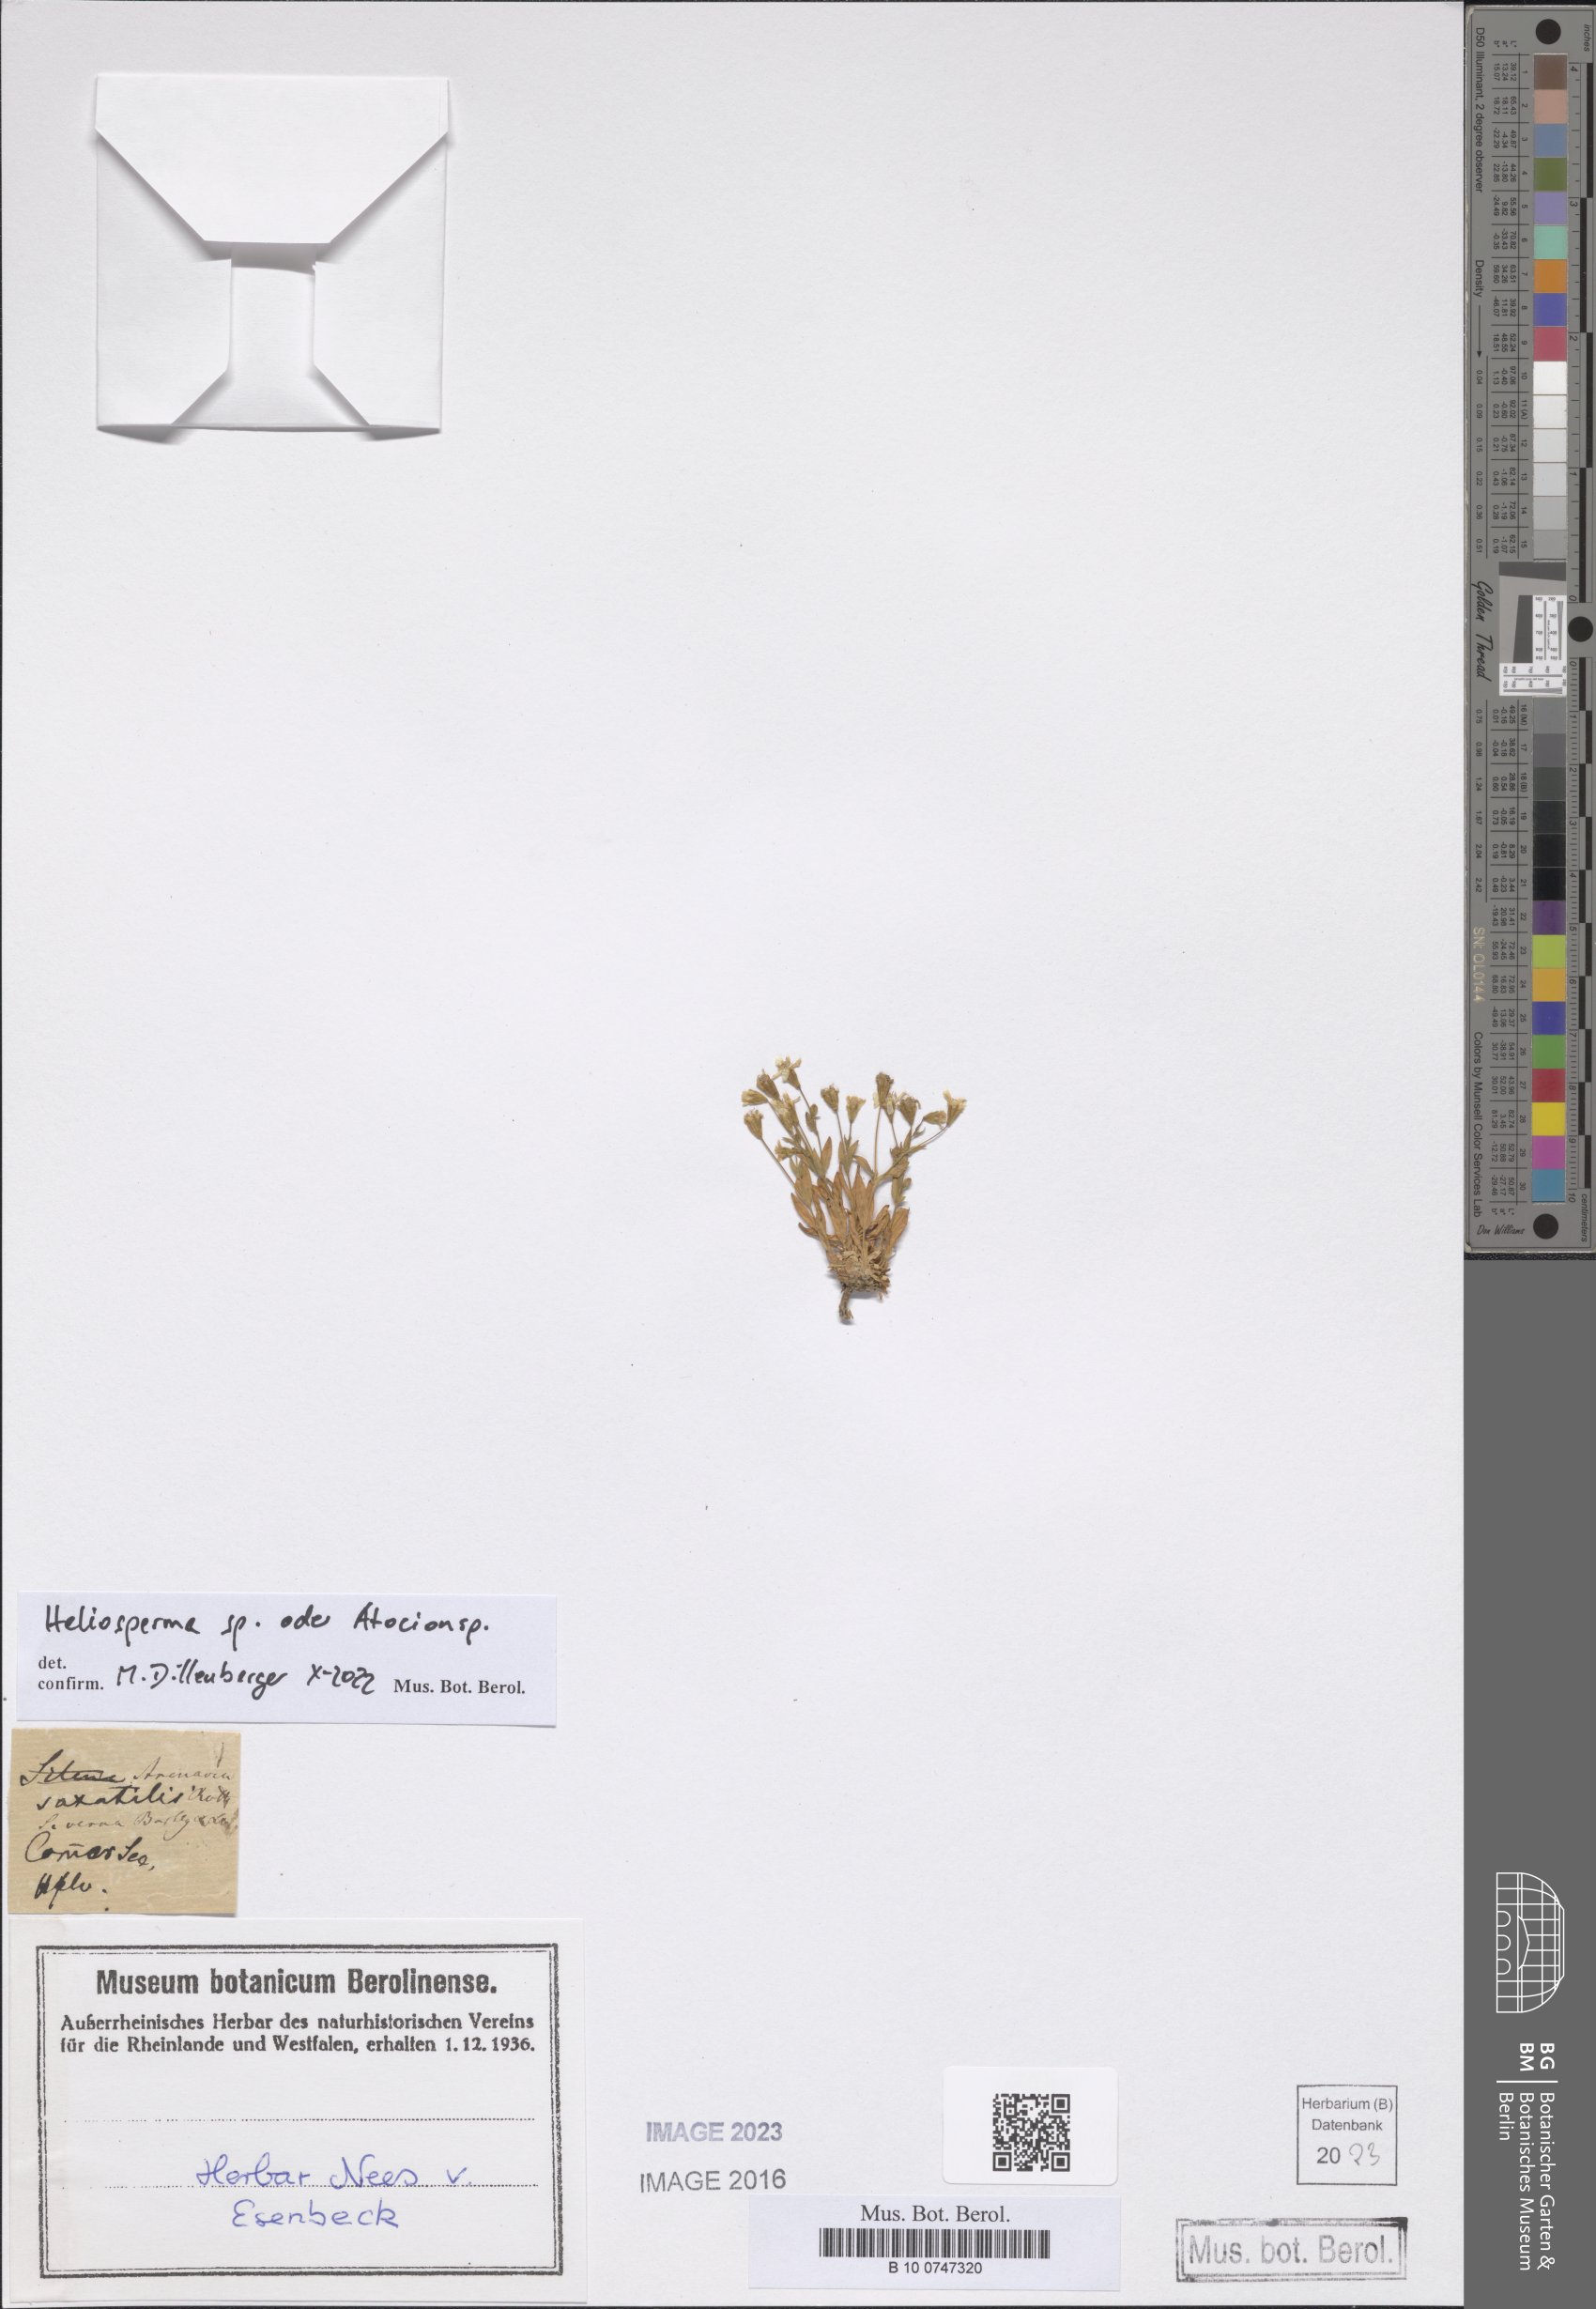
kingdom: Plantae
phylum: Tracheophyta
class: Magnoliopsida
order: Caryophyllales
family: Caryophyllaceae
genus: Heliosperma
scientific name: Heliosperma
